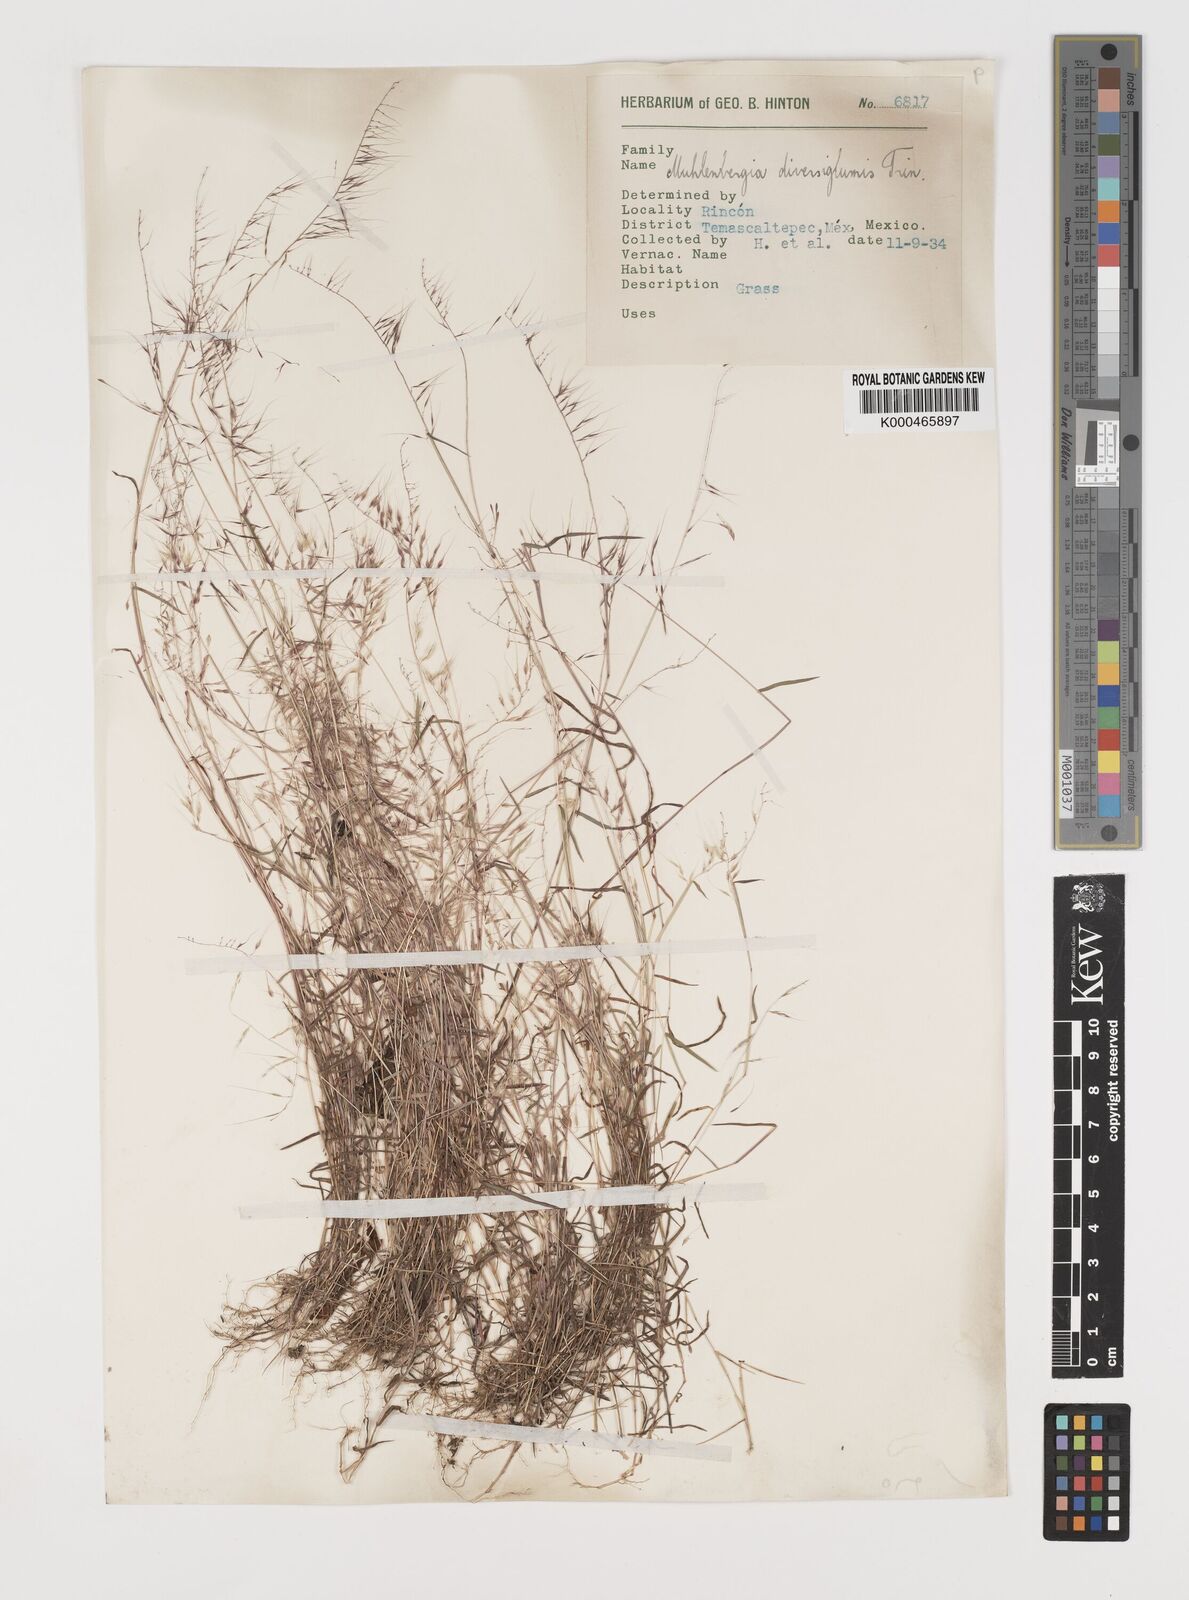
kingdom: Plantae
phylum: Tracheophyta
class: Liliopsida
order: Poales
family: Poaceae
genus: Muhlenbergia
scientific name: Muhlenbergia diversiglumis
